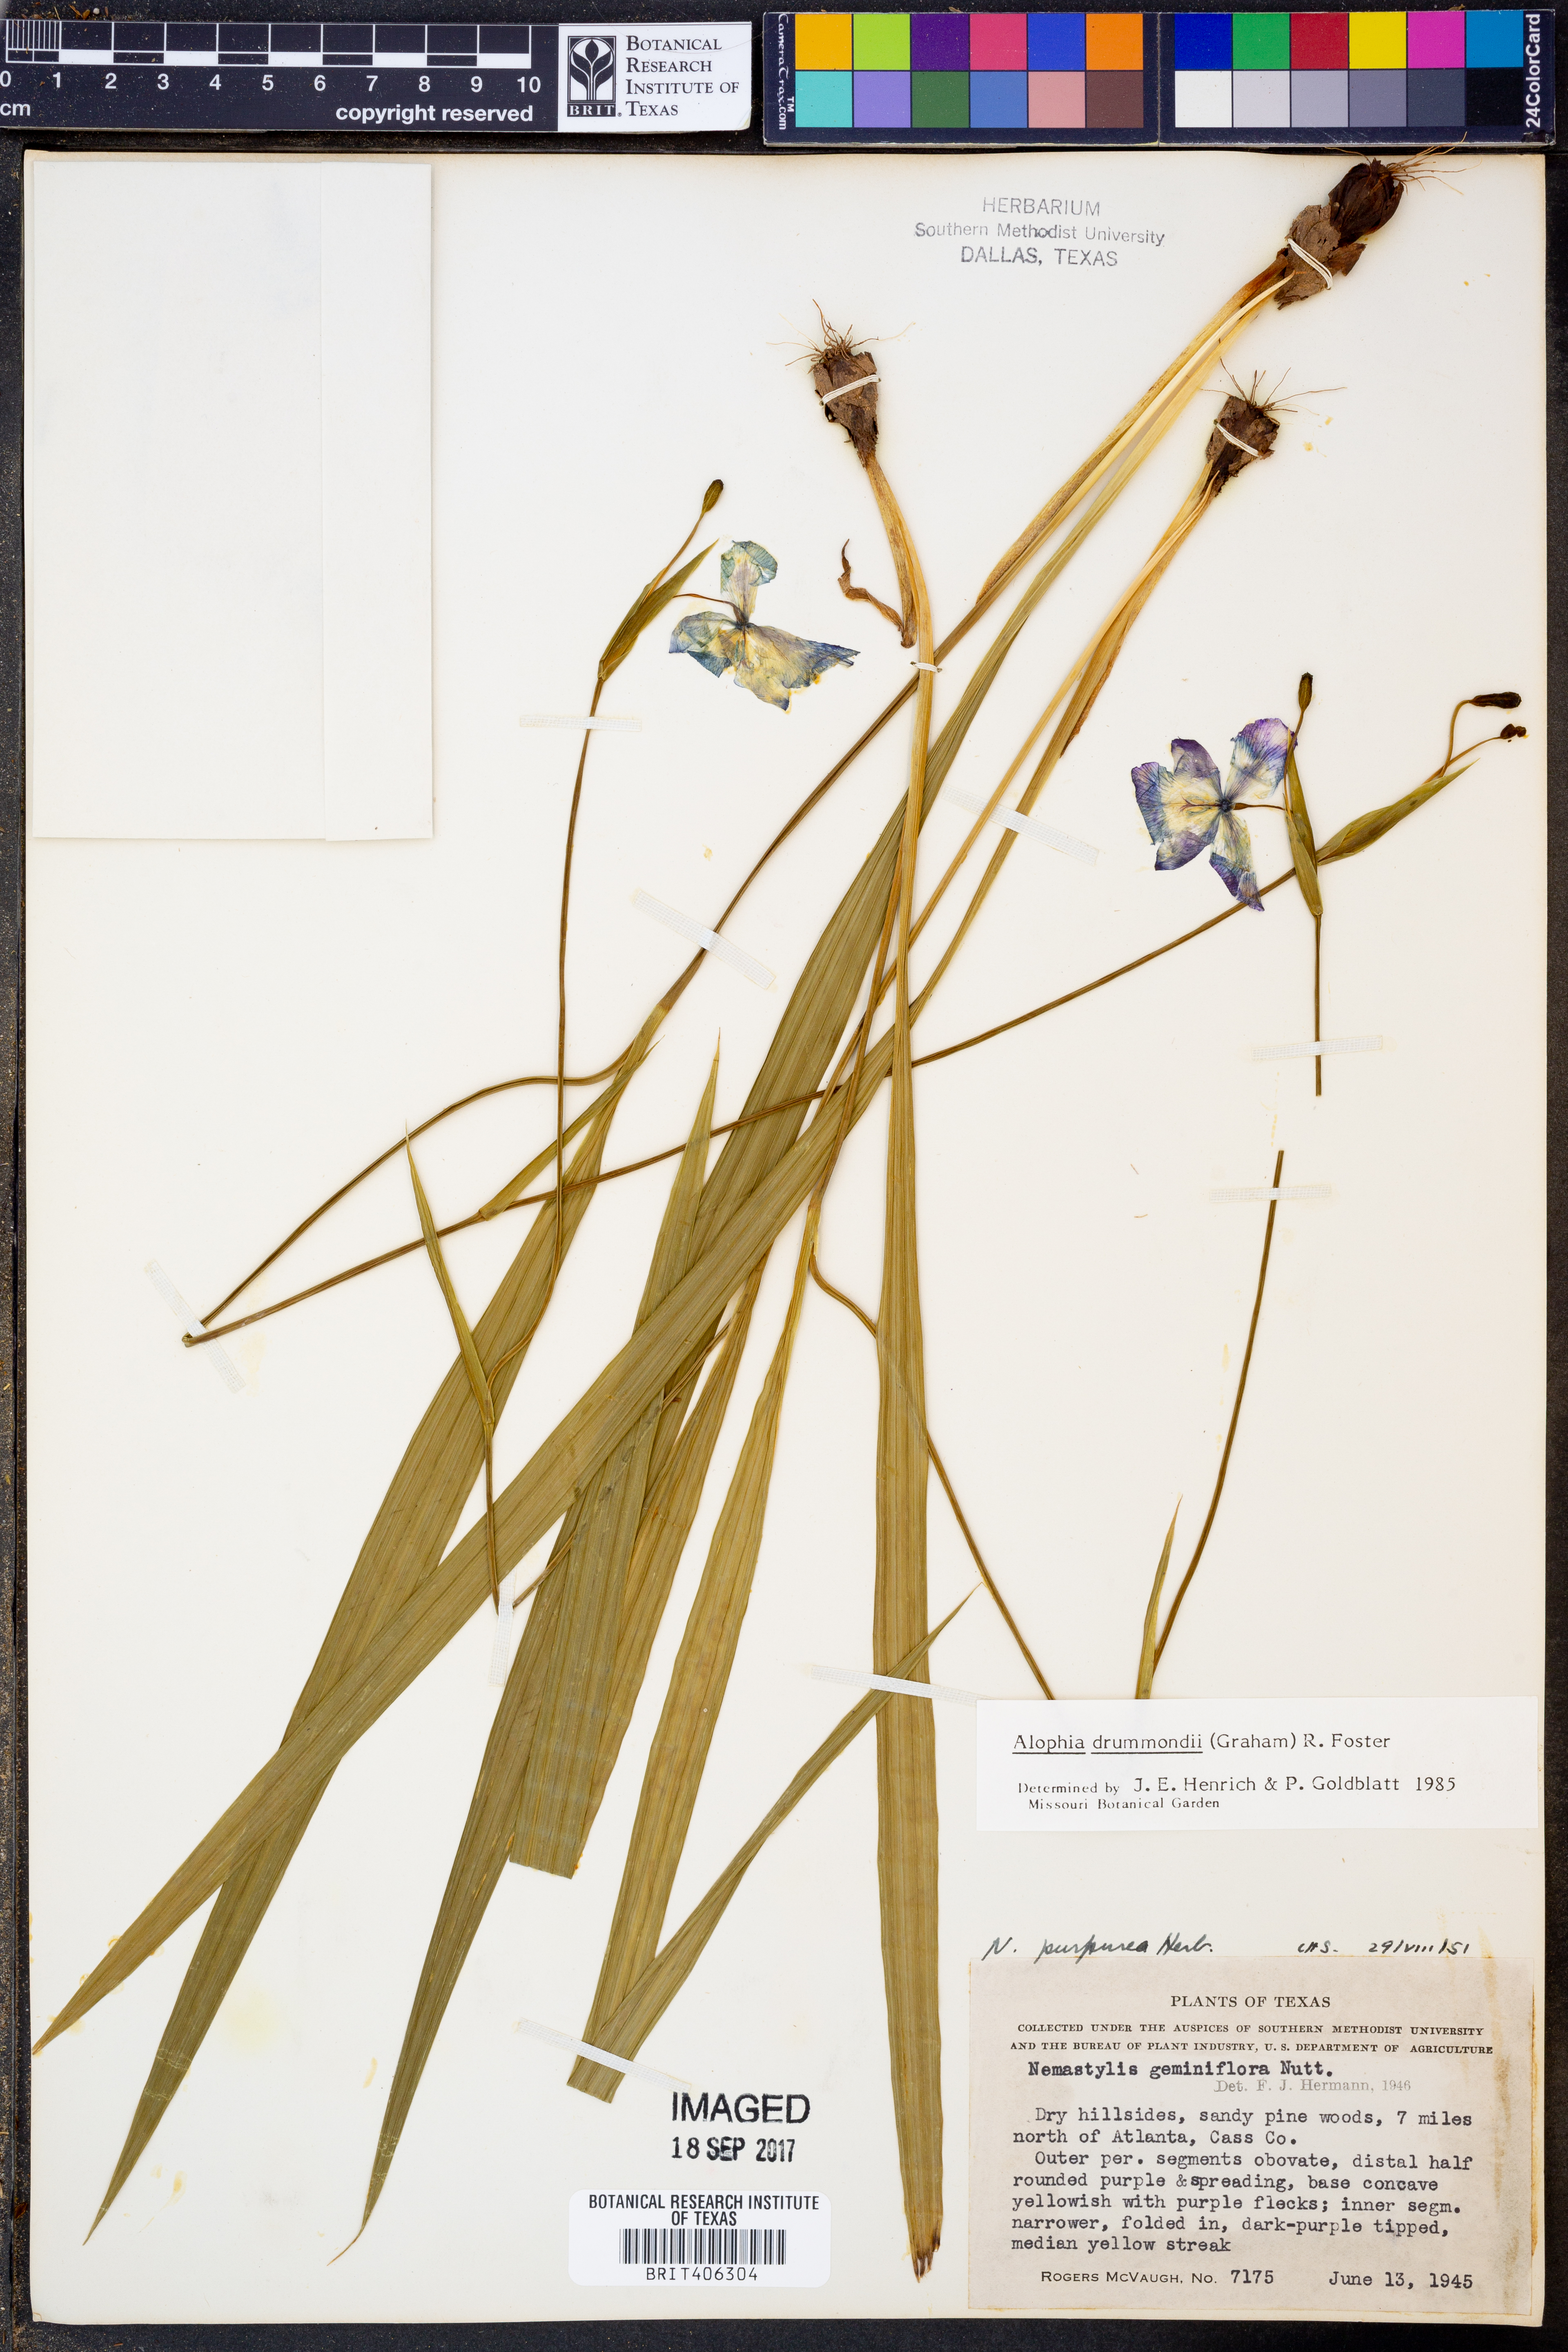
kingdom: Plantae
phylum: Tracheophyta
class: Liliopsida
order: Asparagales
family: Iridaceae
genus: Alophia
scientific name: Alophia drummondii
